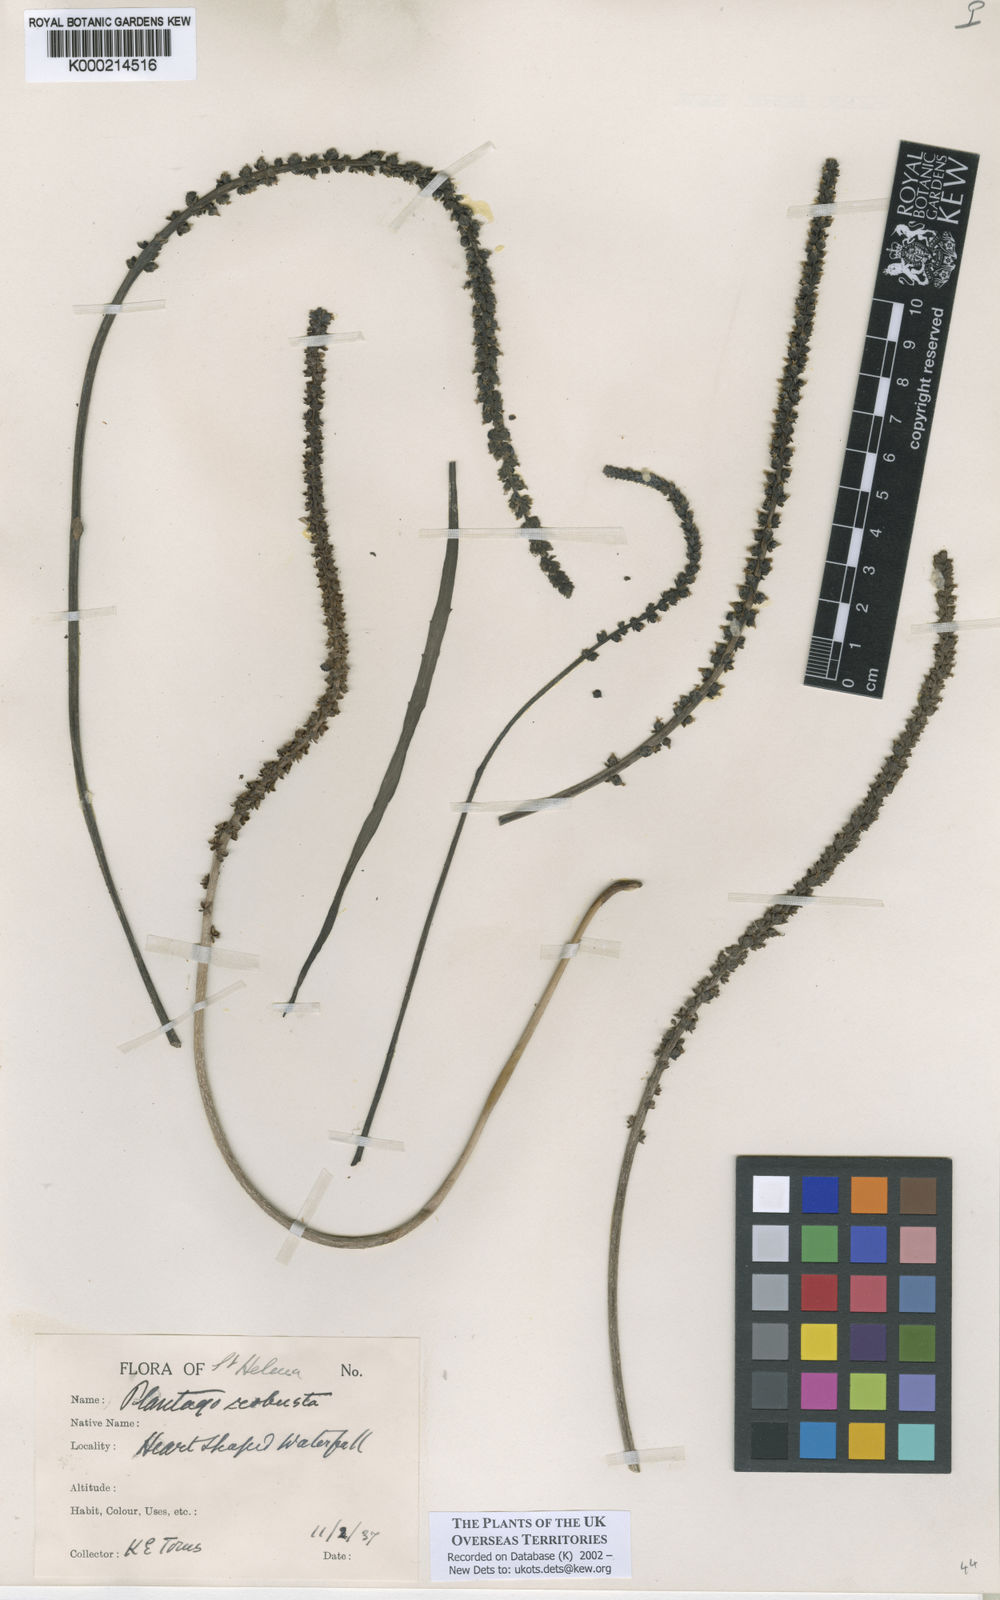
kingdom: Plantae
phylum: Tracheophyta
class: Magnoliopsida
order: Lamiales
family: Plantaginaceae
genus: Plantago
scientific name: Plantago robusta
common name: St helena plantain
